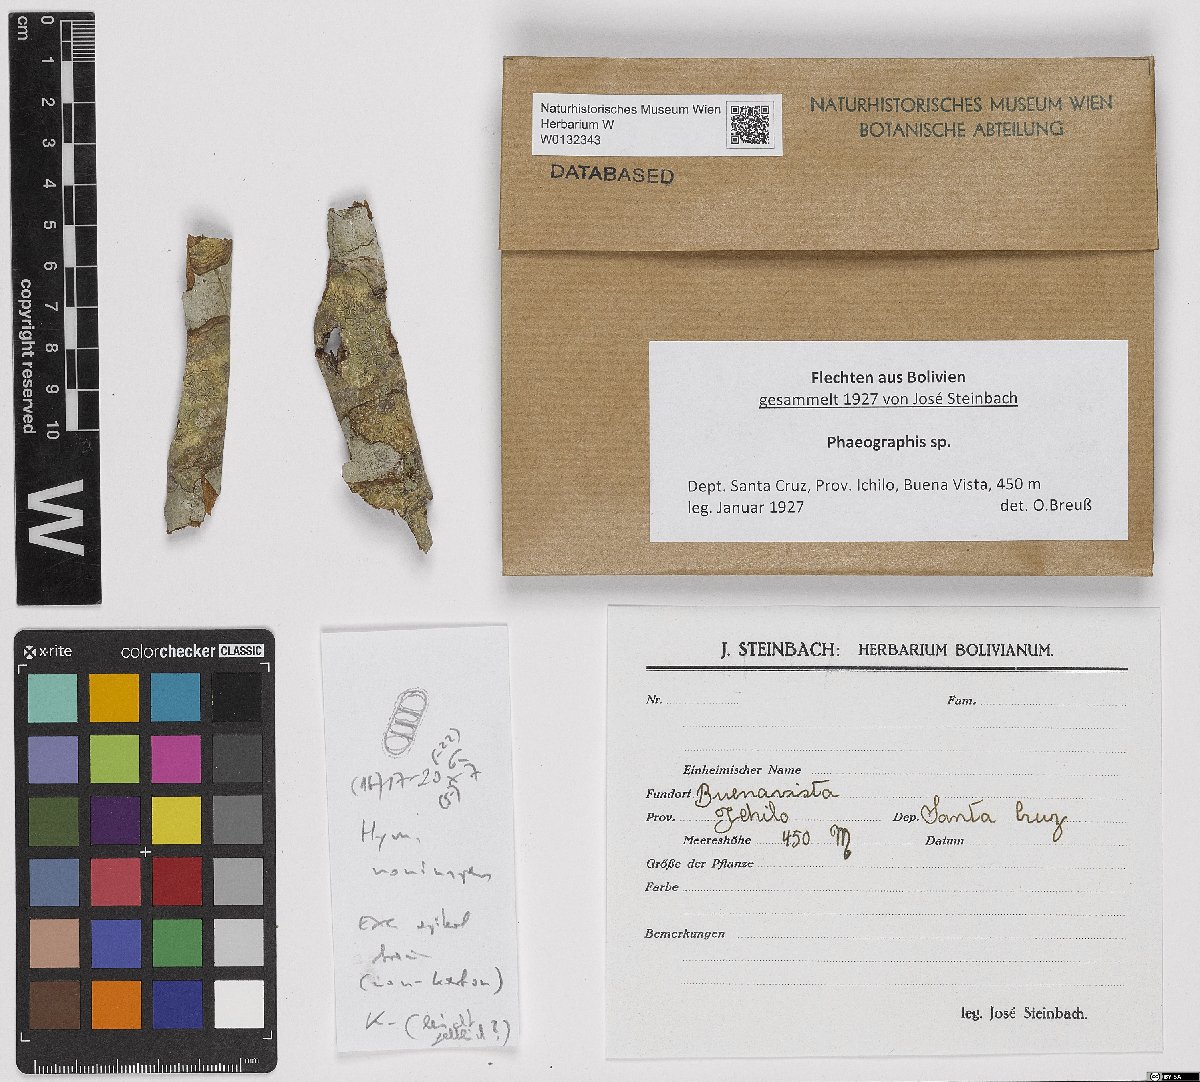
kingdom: Fungi
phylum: Ascomycota
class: Lecanoromycetes
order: Ostropales
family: Graphidaceae
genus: Phaeographis
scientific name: Phaeographis
